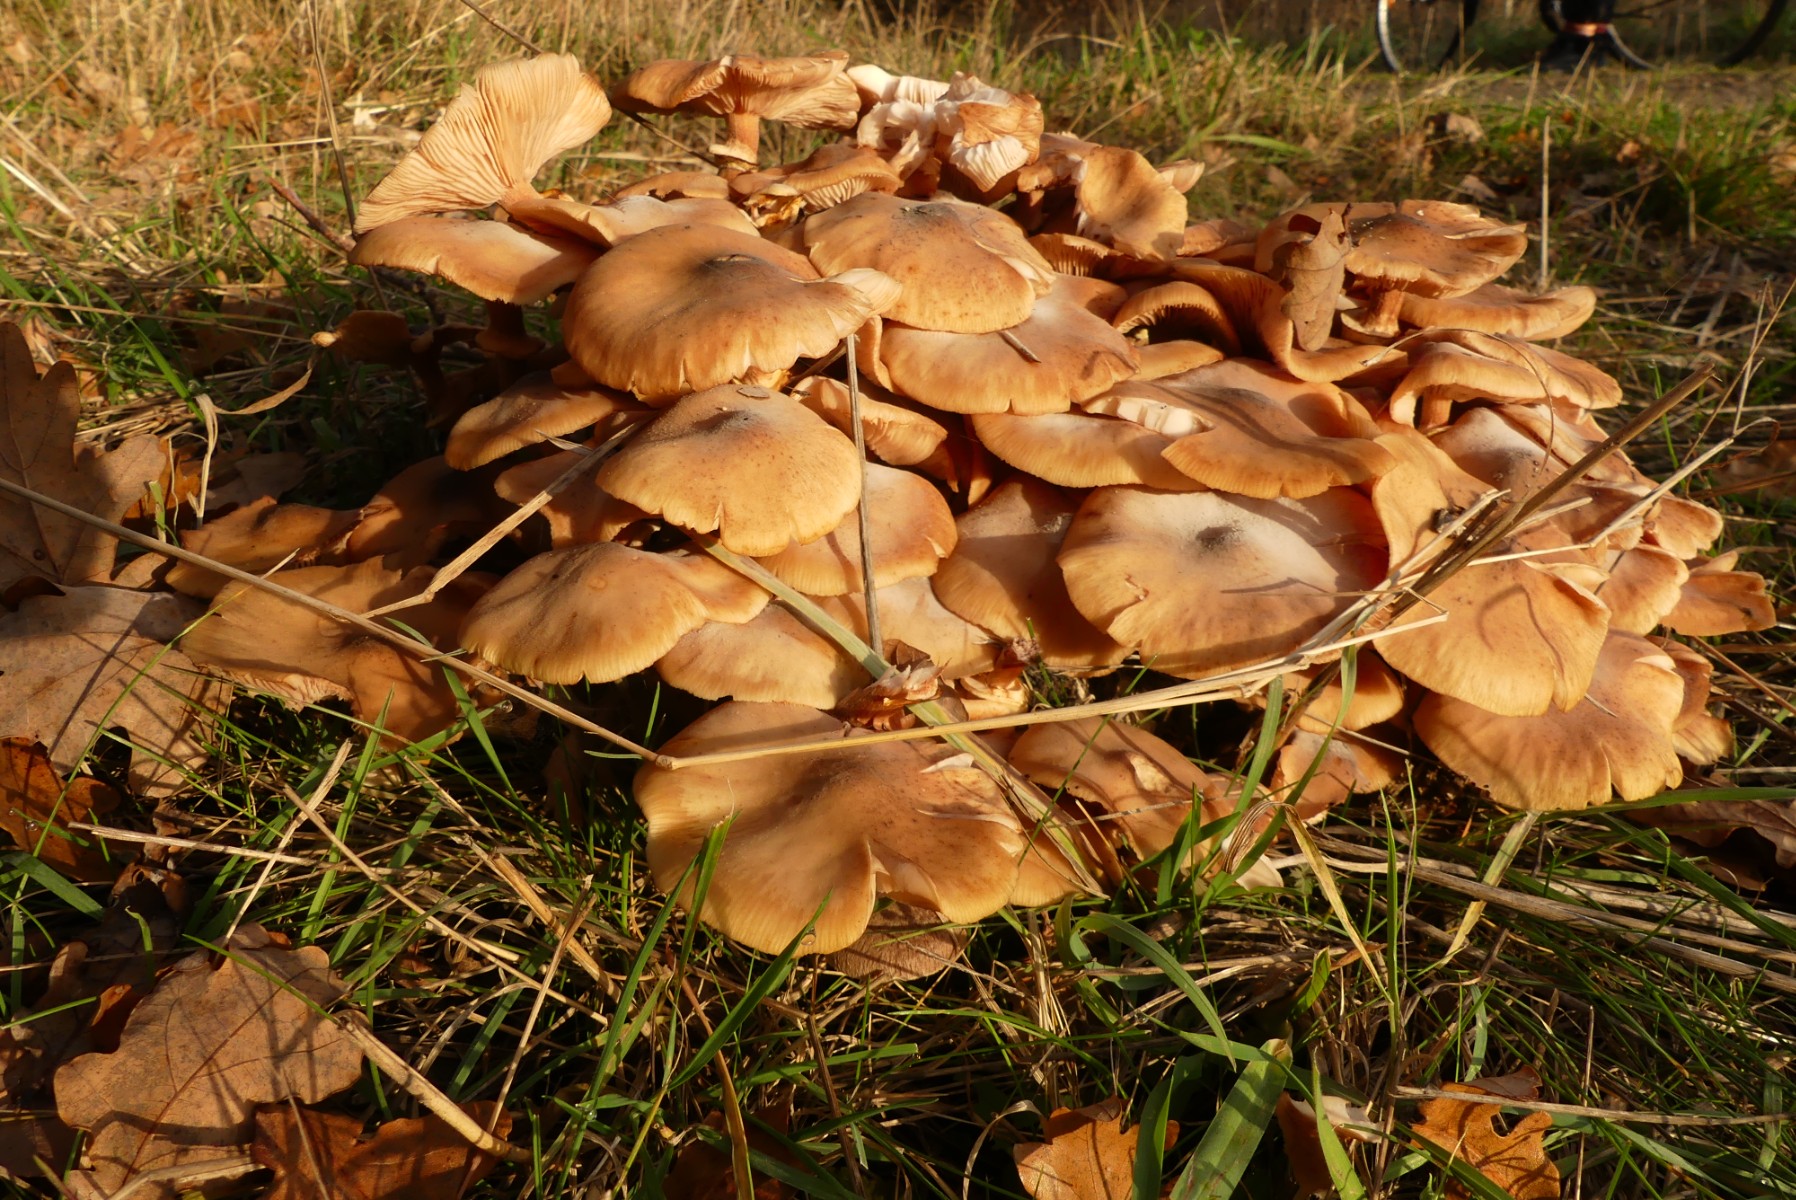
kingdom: Fungi
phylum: Basidiomycota
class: Agaricomycetes
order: Agaricales
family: Physalacriaceae
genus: Armillaria
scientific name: Armillaria
